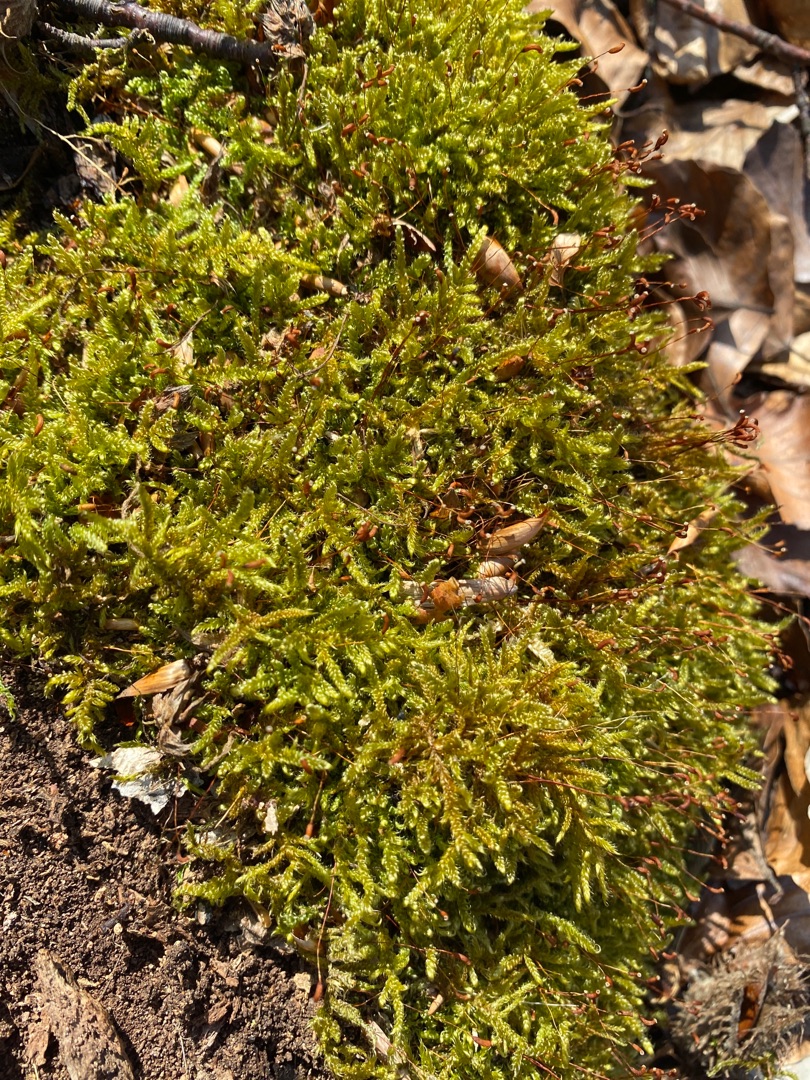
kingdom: Plantae
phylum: Bryophyta
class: Bryopsida
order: Hypnales
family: Hypnaceae
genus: Hypnum
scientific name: Hypnum cupressiforme
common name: Almindelig cypresmos
